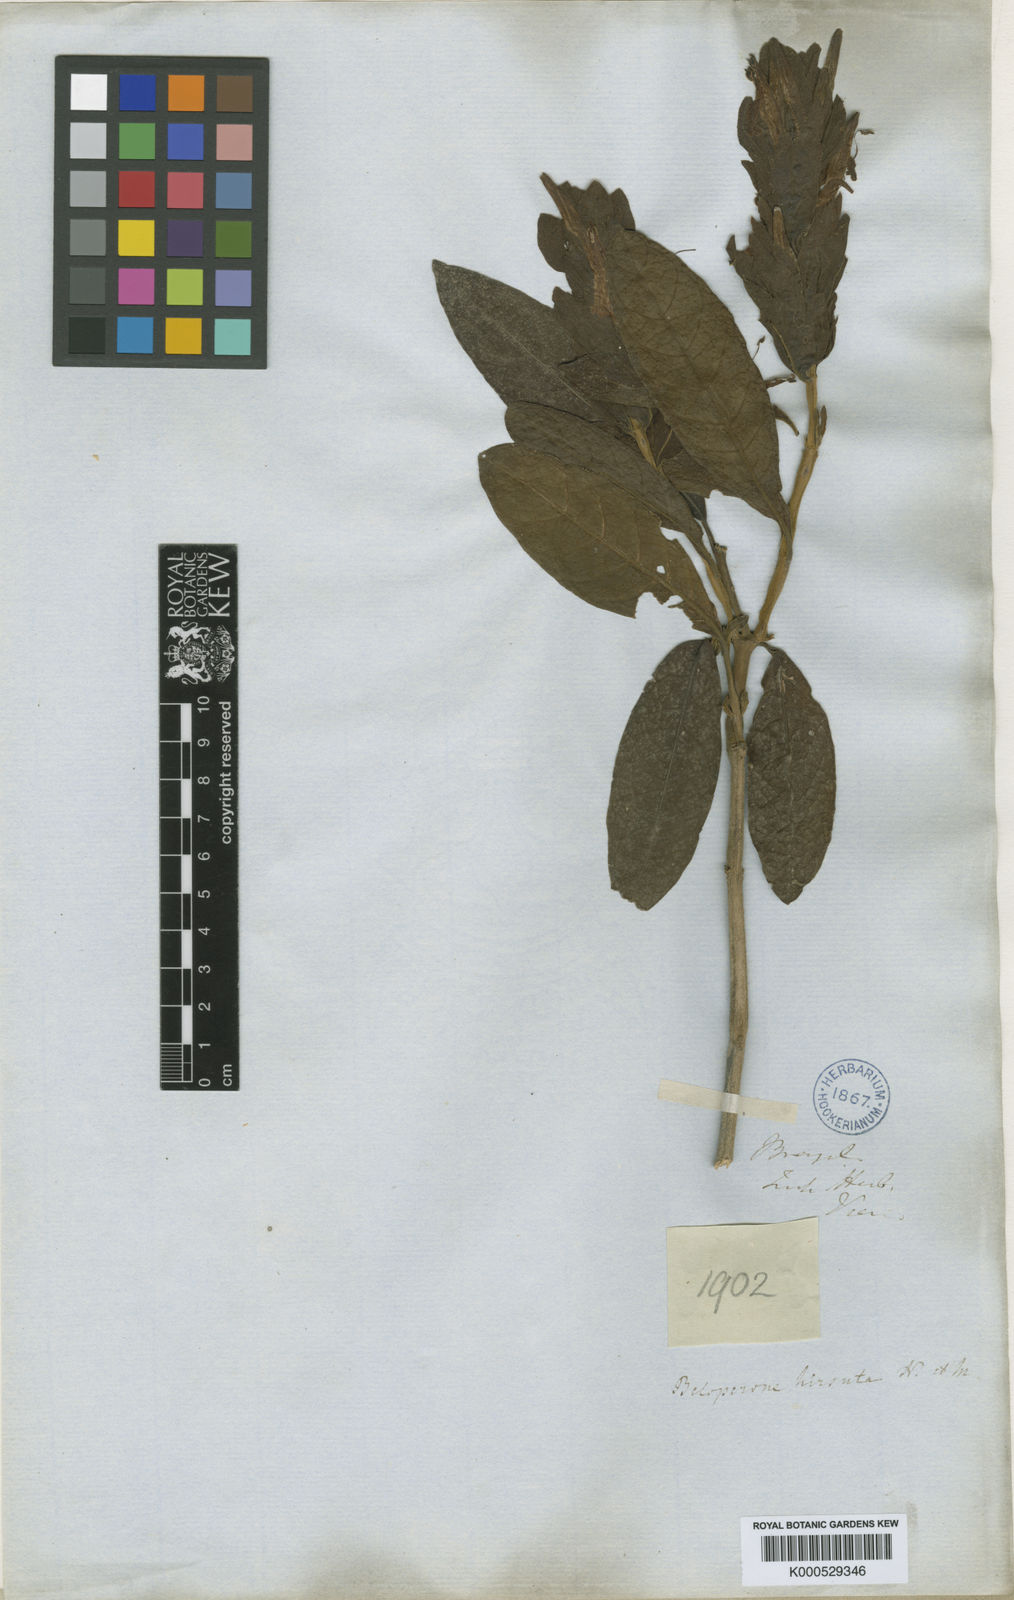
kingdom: Plantae
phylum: Tracheophyta
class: Magnoliopsida
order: Lamiales
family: Acanthaceae
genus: Nelsonia
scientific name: Nelsonia canescens
